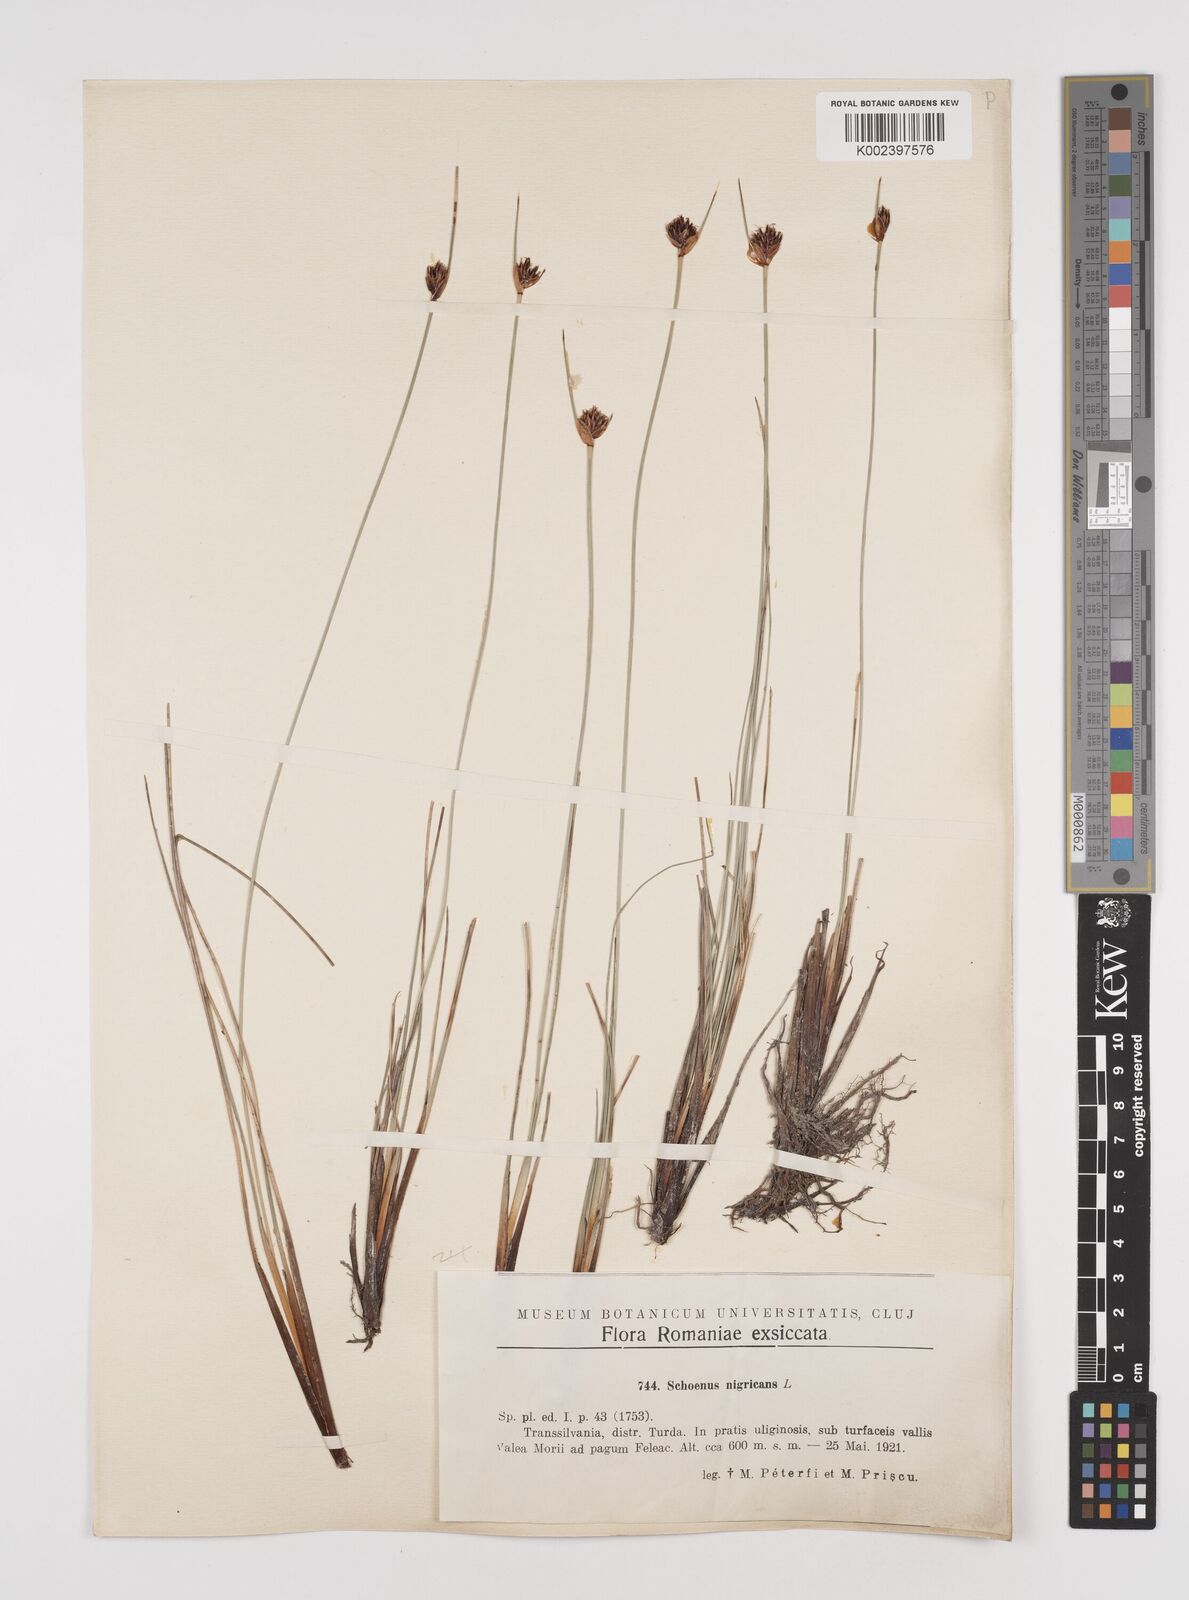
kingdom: Plantae
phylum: Tracheophyta
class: Liliopsida
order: Poales
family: Cyperaceae
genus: Schoenus
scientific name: Schoenus nigricans
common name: Black bog-rush
